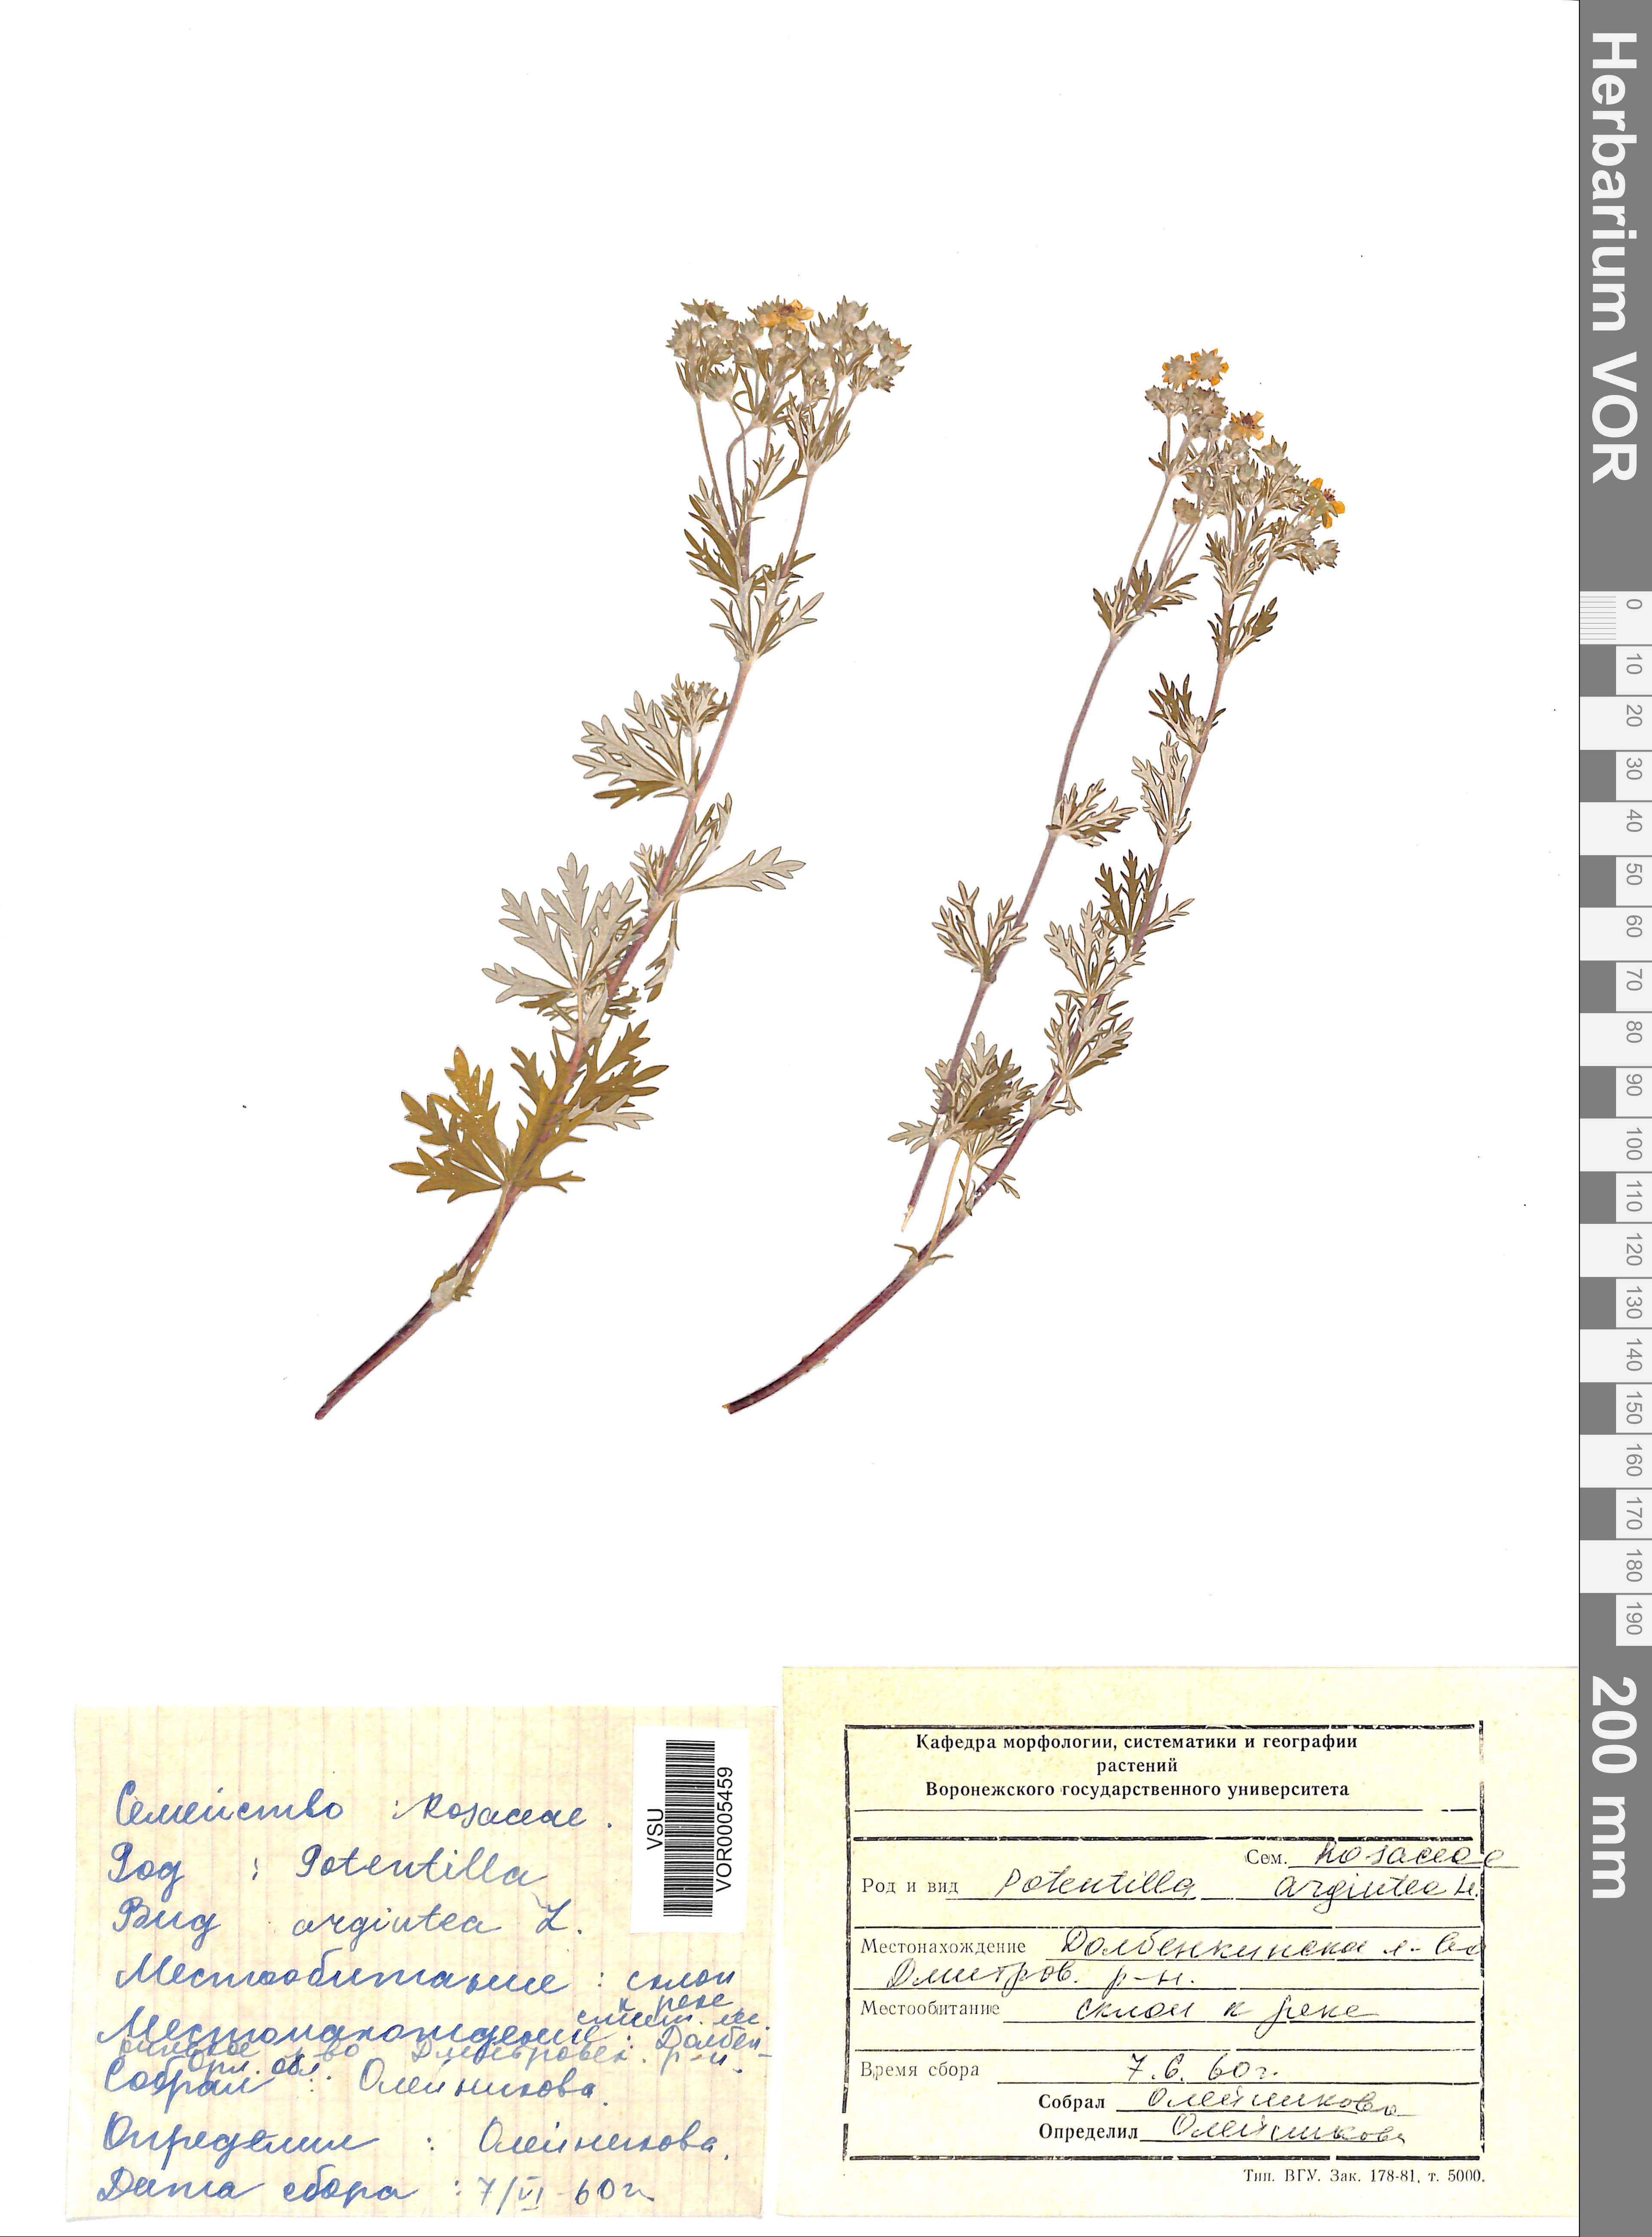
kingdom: Plantae
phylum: Tracheophyta
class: Magnoliopsida
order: Rosales
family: Rosaceae
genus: Potentilla
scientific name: Potentilla argentea
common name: Hoary cinquefoil
